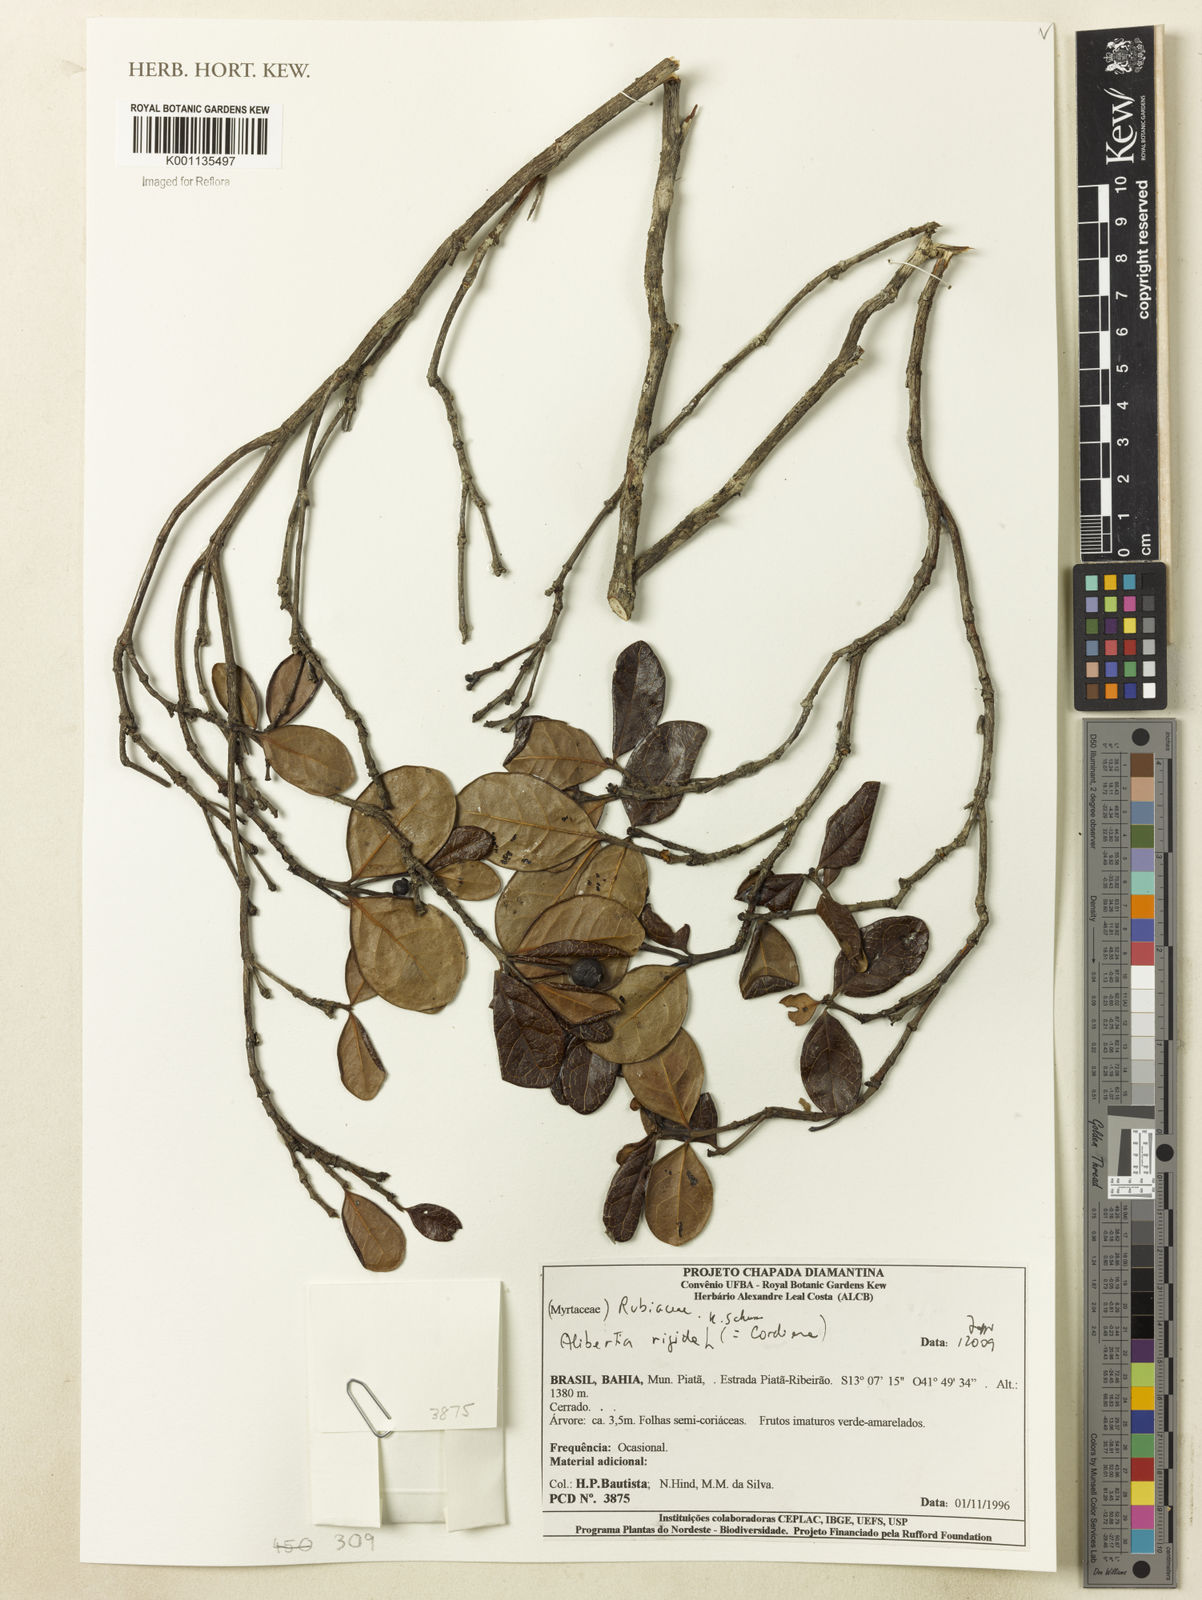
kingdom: Plantae
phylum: Tracheophyta
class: Magnoliopsida
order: Gentianales
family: Rubiaceae
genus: Cordiera
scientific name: Cordiera rigida
